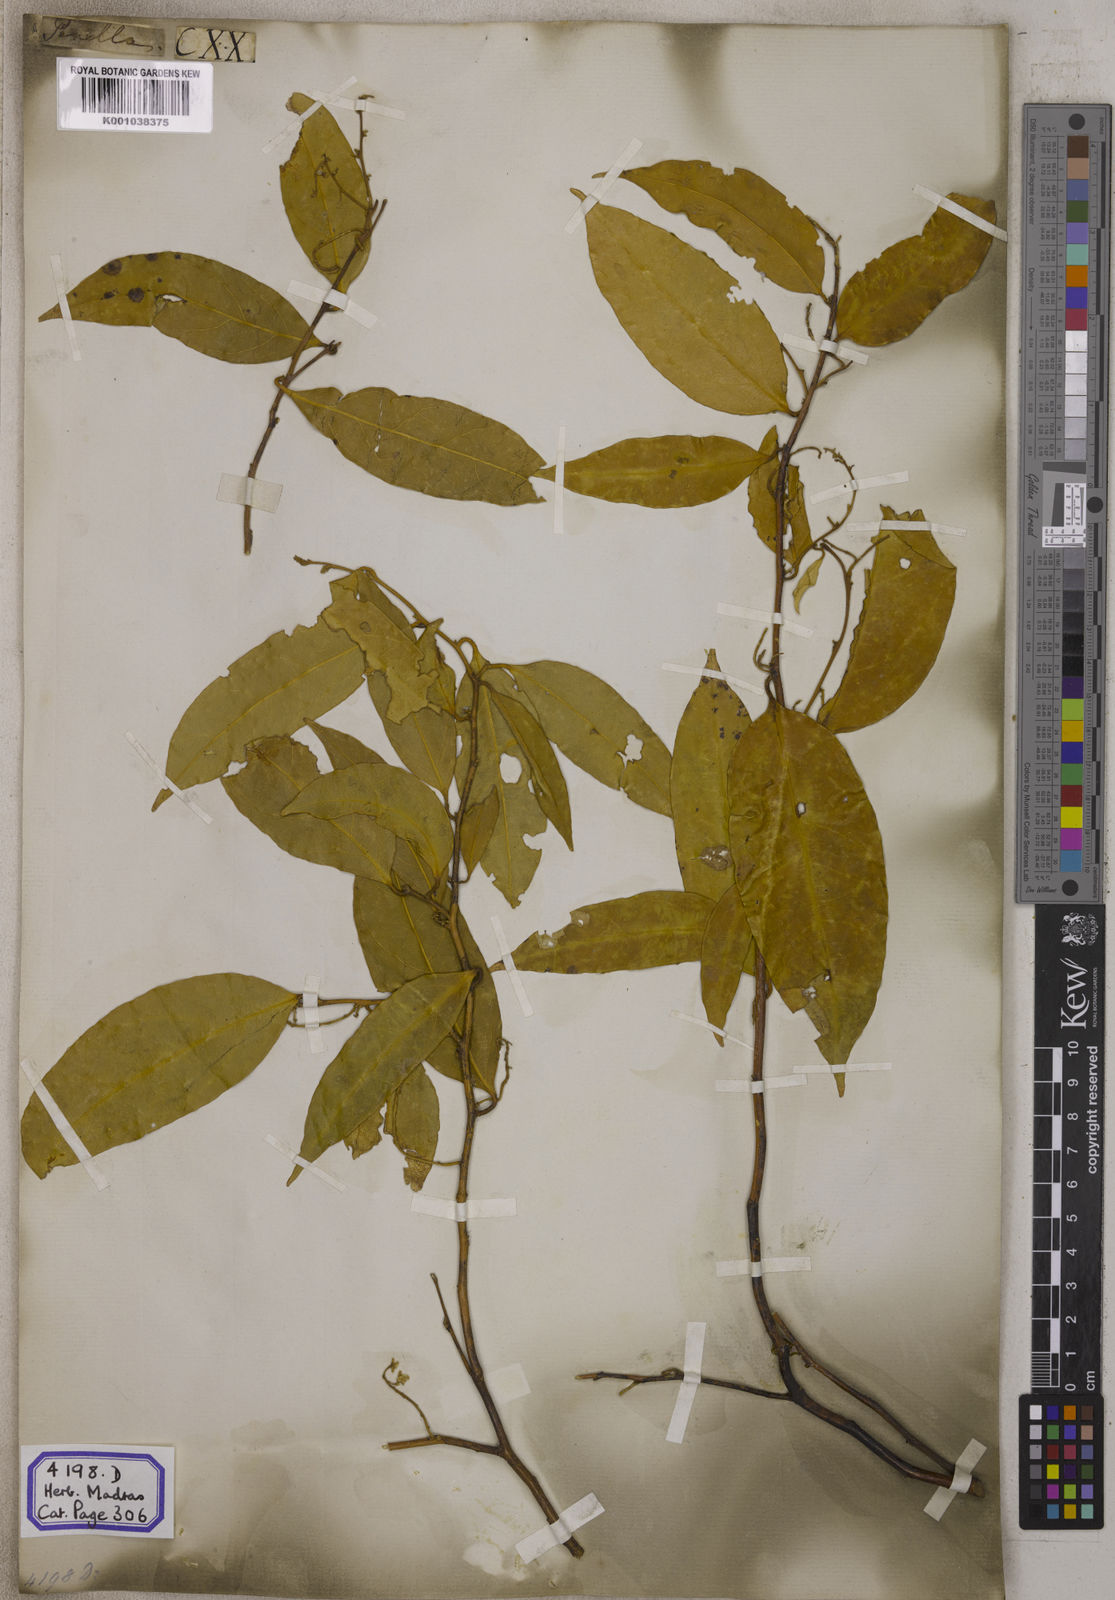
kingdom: Plantae
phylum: Tracheophyta
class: Magnoliopsida
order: Fabales
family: Polygalaceae
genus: Xanthophyllum
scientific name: Xanthophyllum flavescens
